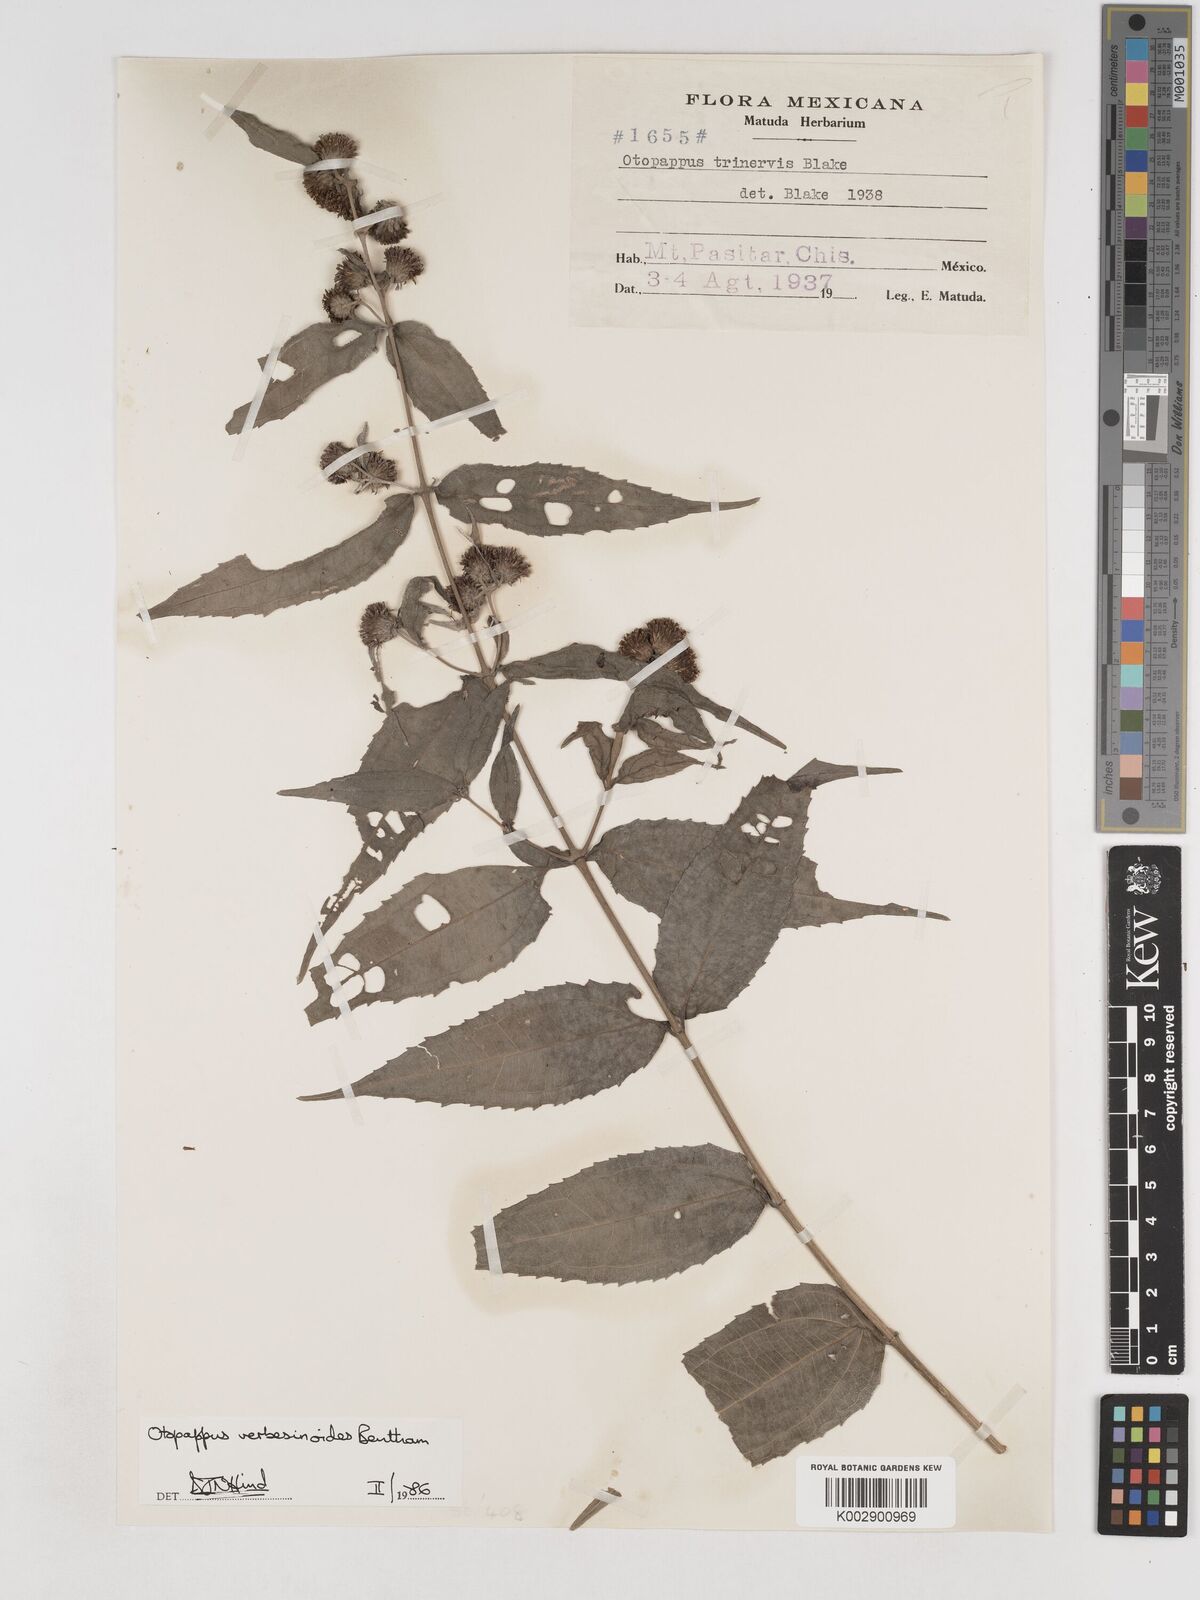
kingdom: Plantae
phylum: Tracheophyta
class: Magnoliopsida
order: Asterales
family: Asteraceae
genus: Otopappus
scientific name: Otopappus verbesinoides
